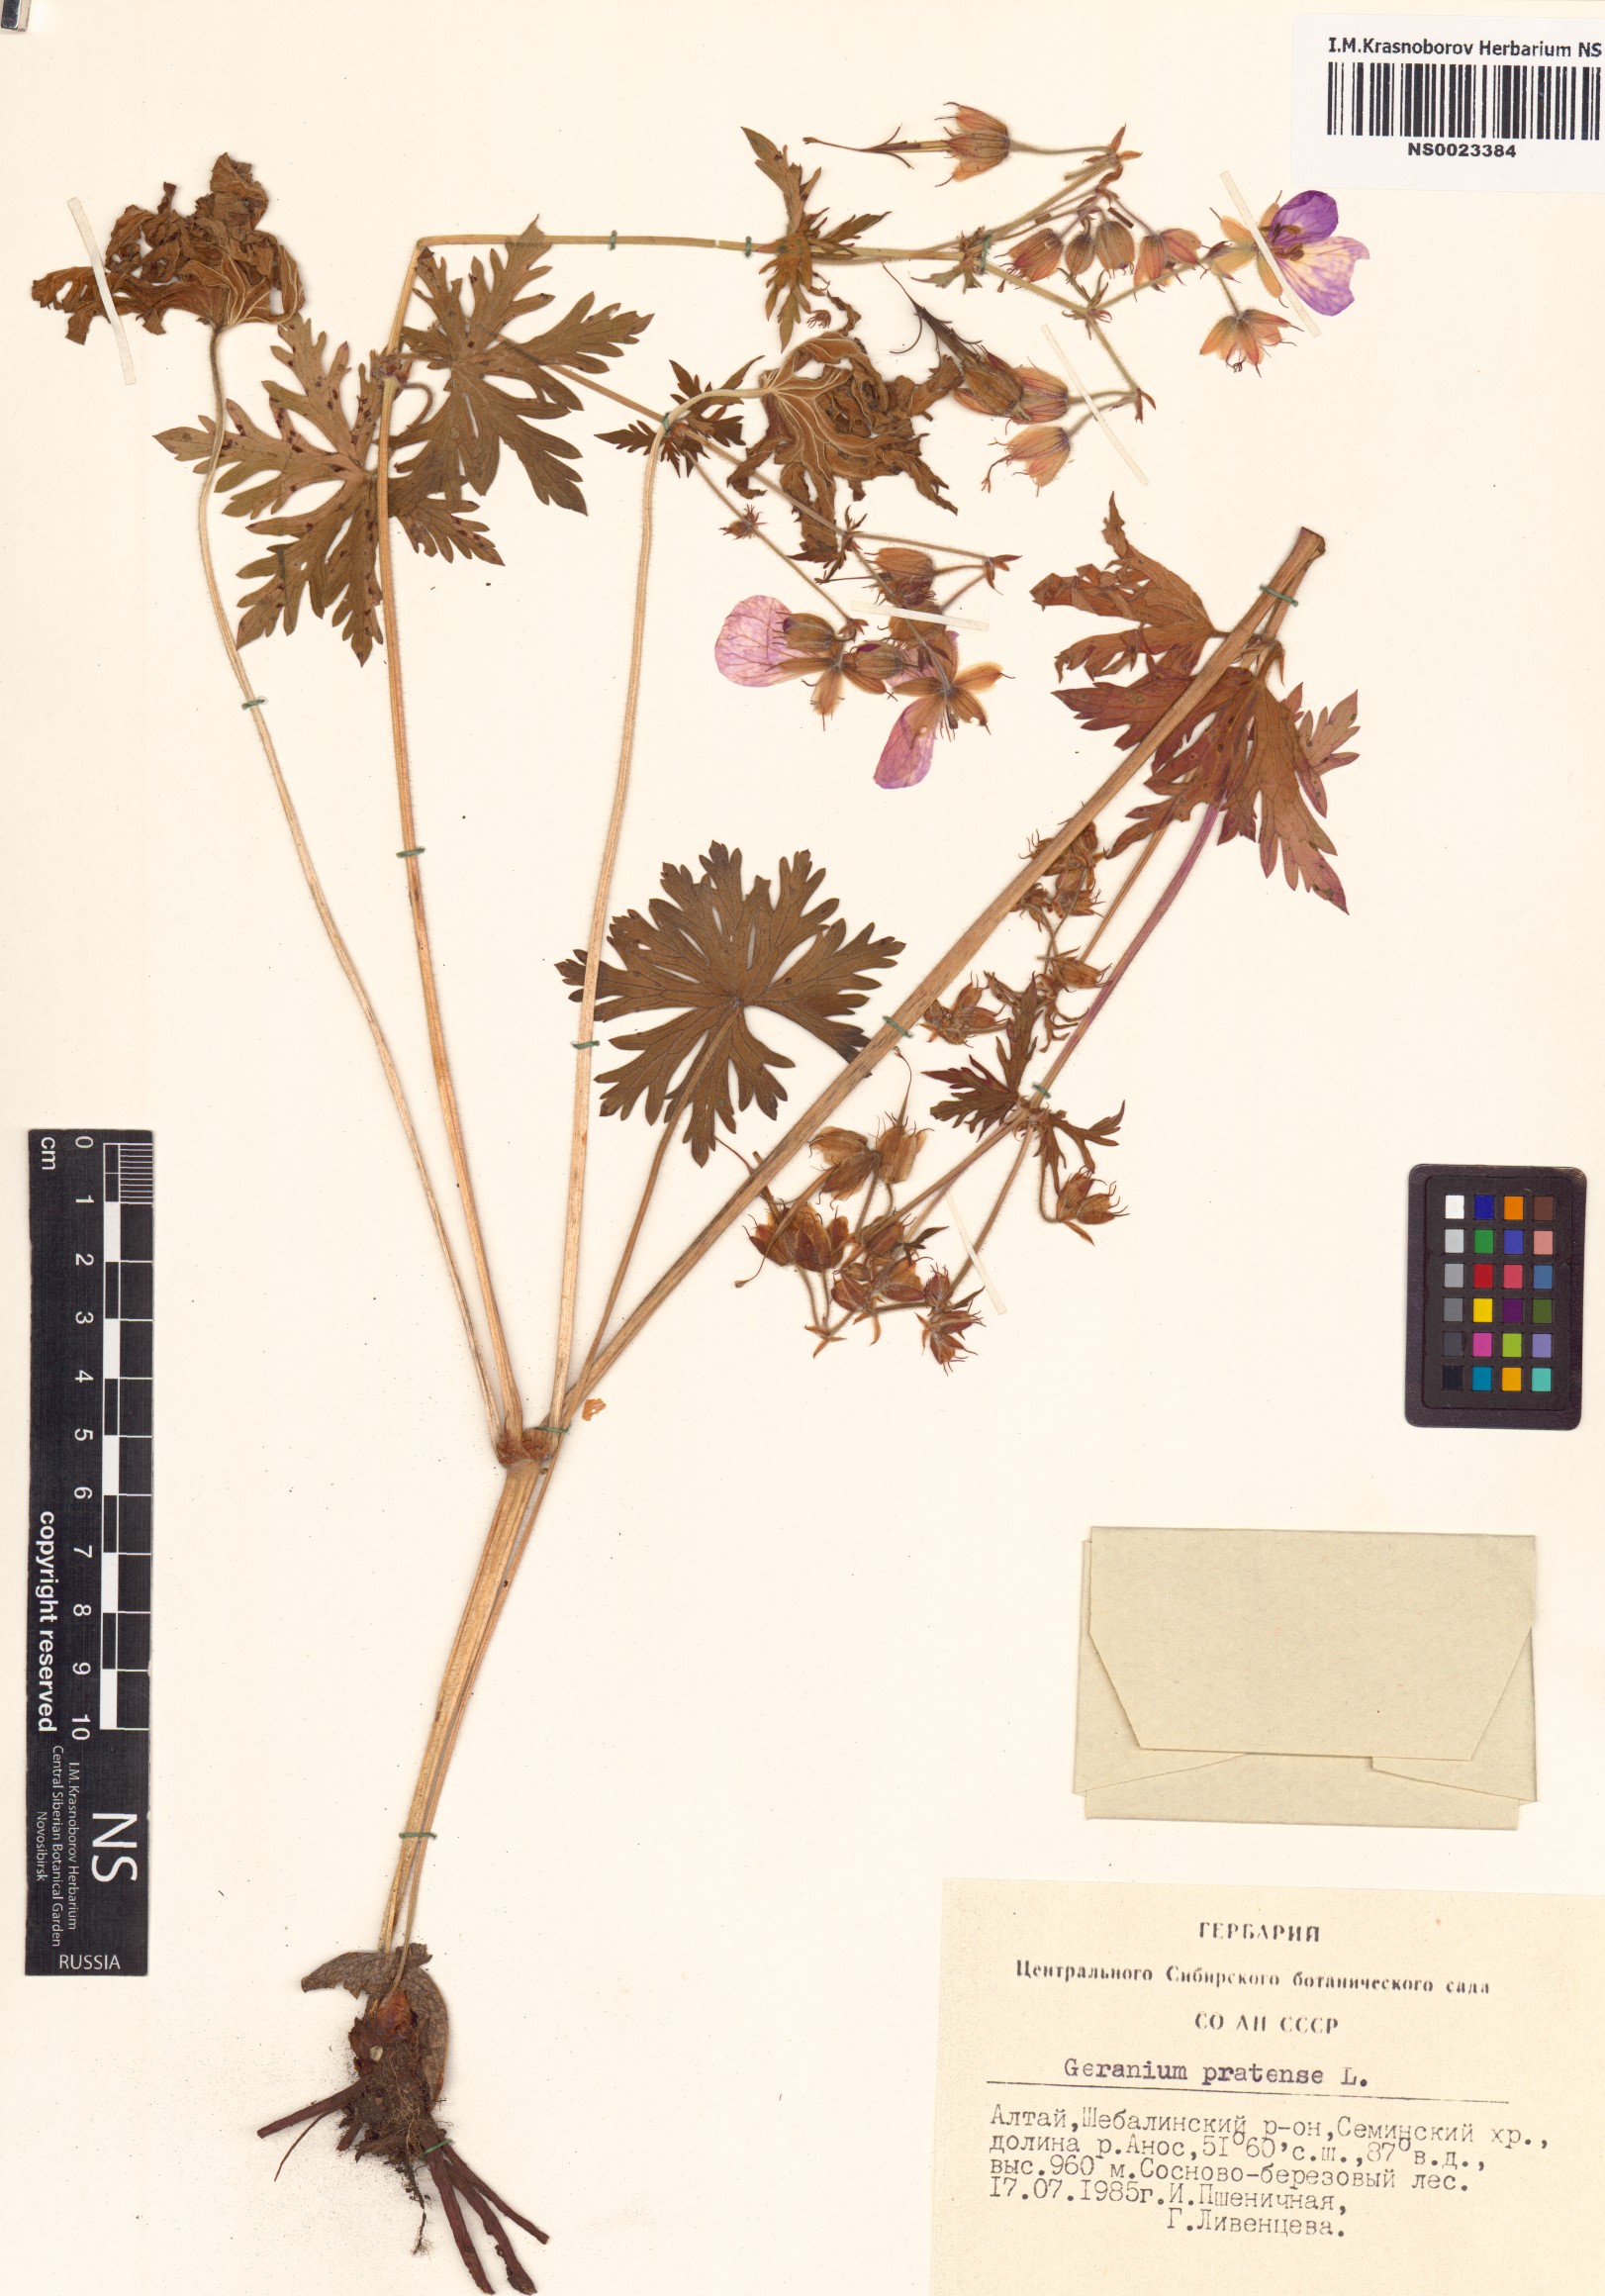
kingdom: Plantae
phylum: Tracheophyta
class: Magnoliopsida
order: Geraniales
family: Geraniaceae
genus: Geranium
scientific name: Geranium pratense
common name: Meadow crane's-bill
